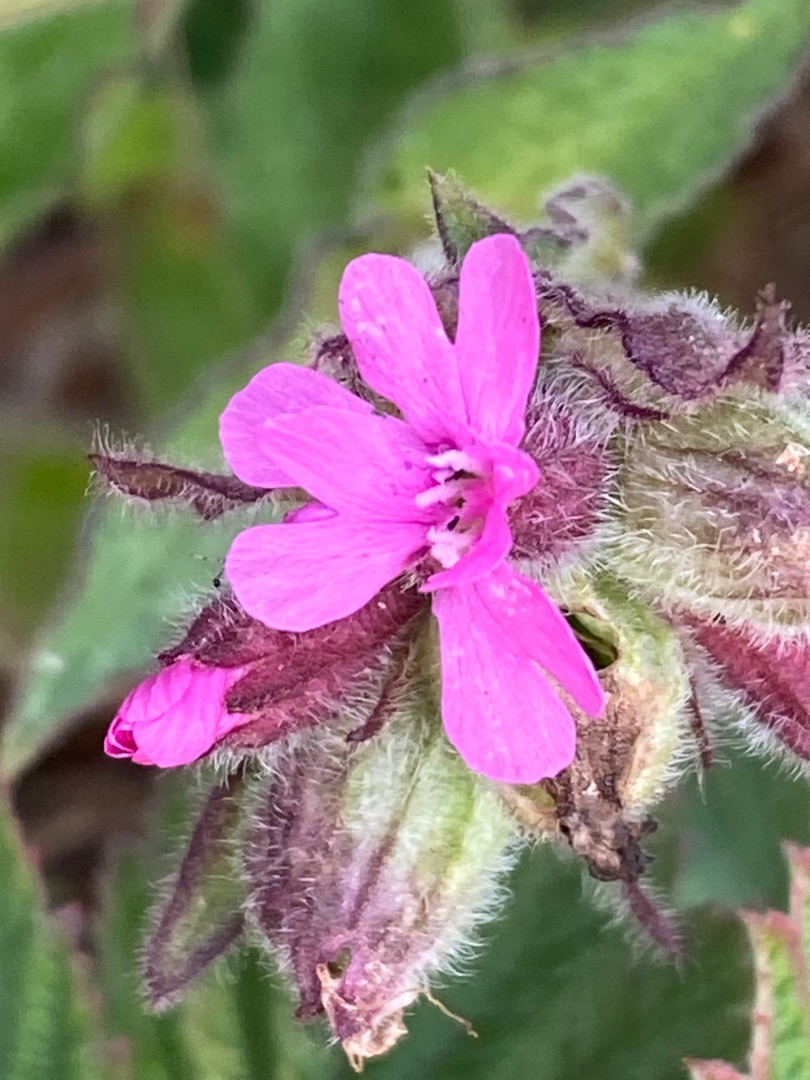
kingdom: Plantae
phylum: Tracheophyta
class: Magnoliopsida
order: Caryophyllales
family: Caryophyllaceae
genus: Silene
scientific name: Silene dioica
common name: Dagpragtstjerne
